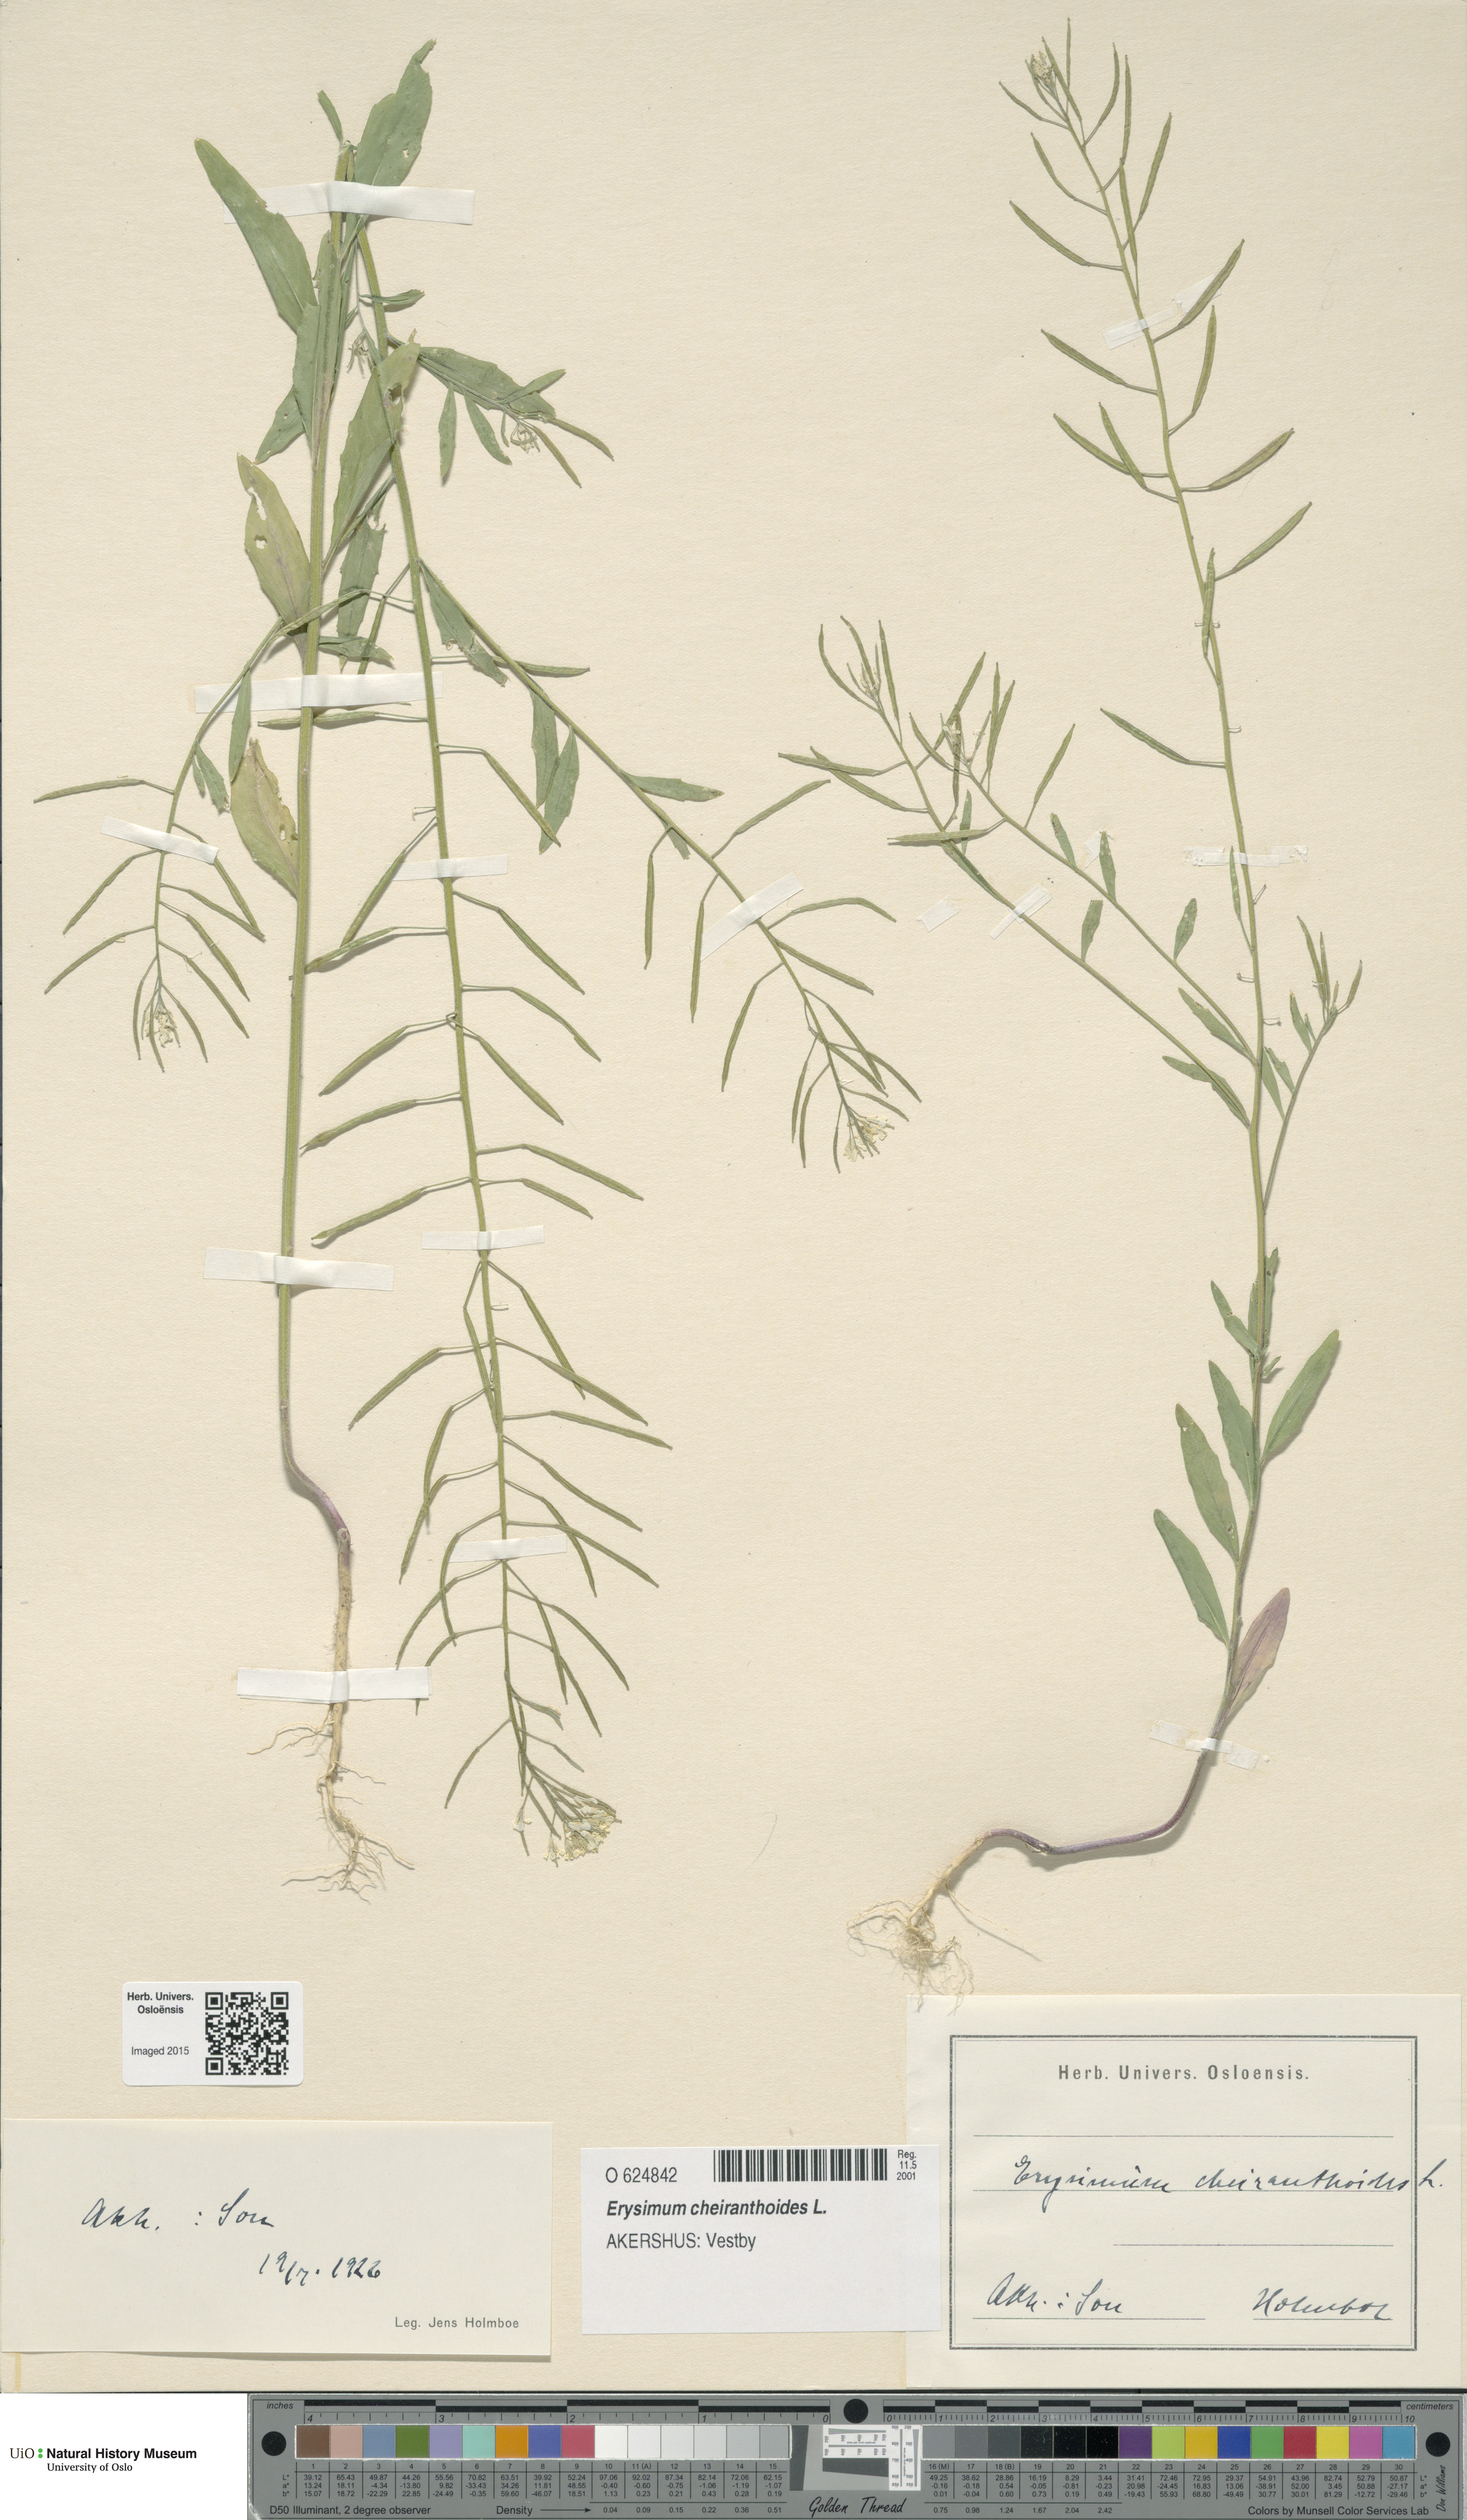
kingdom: Plantae
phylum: Tracheophyta
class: Magnoliopsida
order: Brassicales
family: Brassicaceae
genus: Erysimum
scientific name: Erysimum cheiranthoides
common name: Treacle mustard
